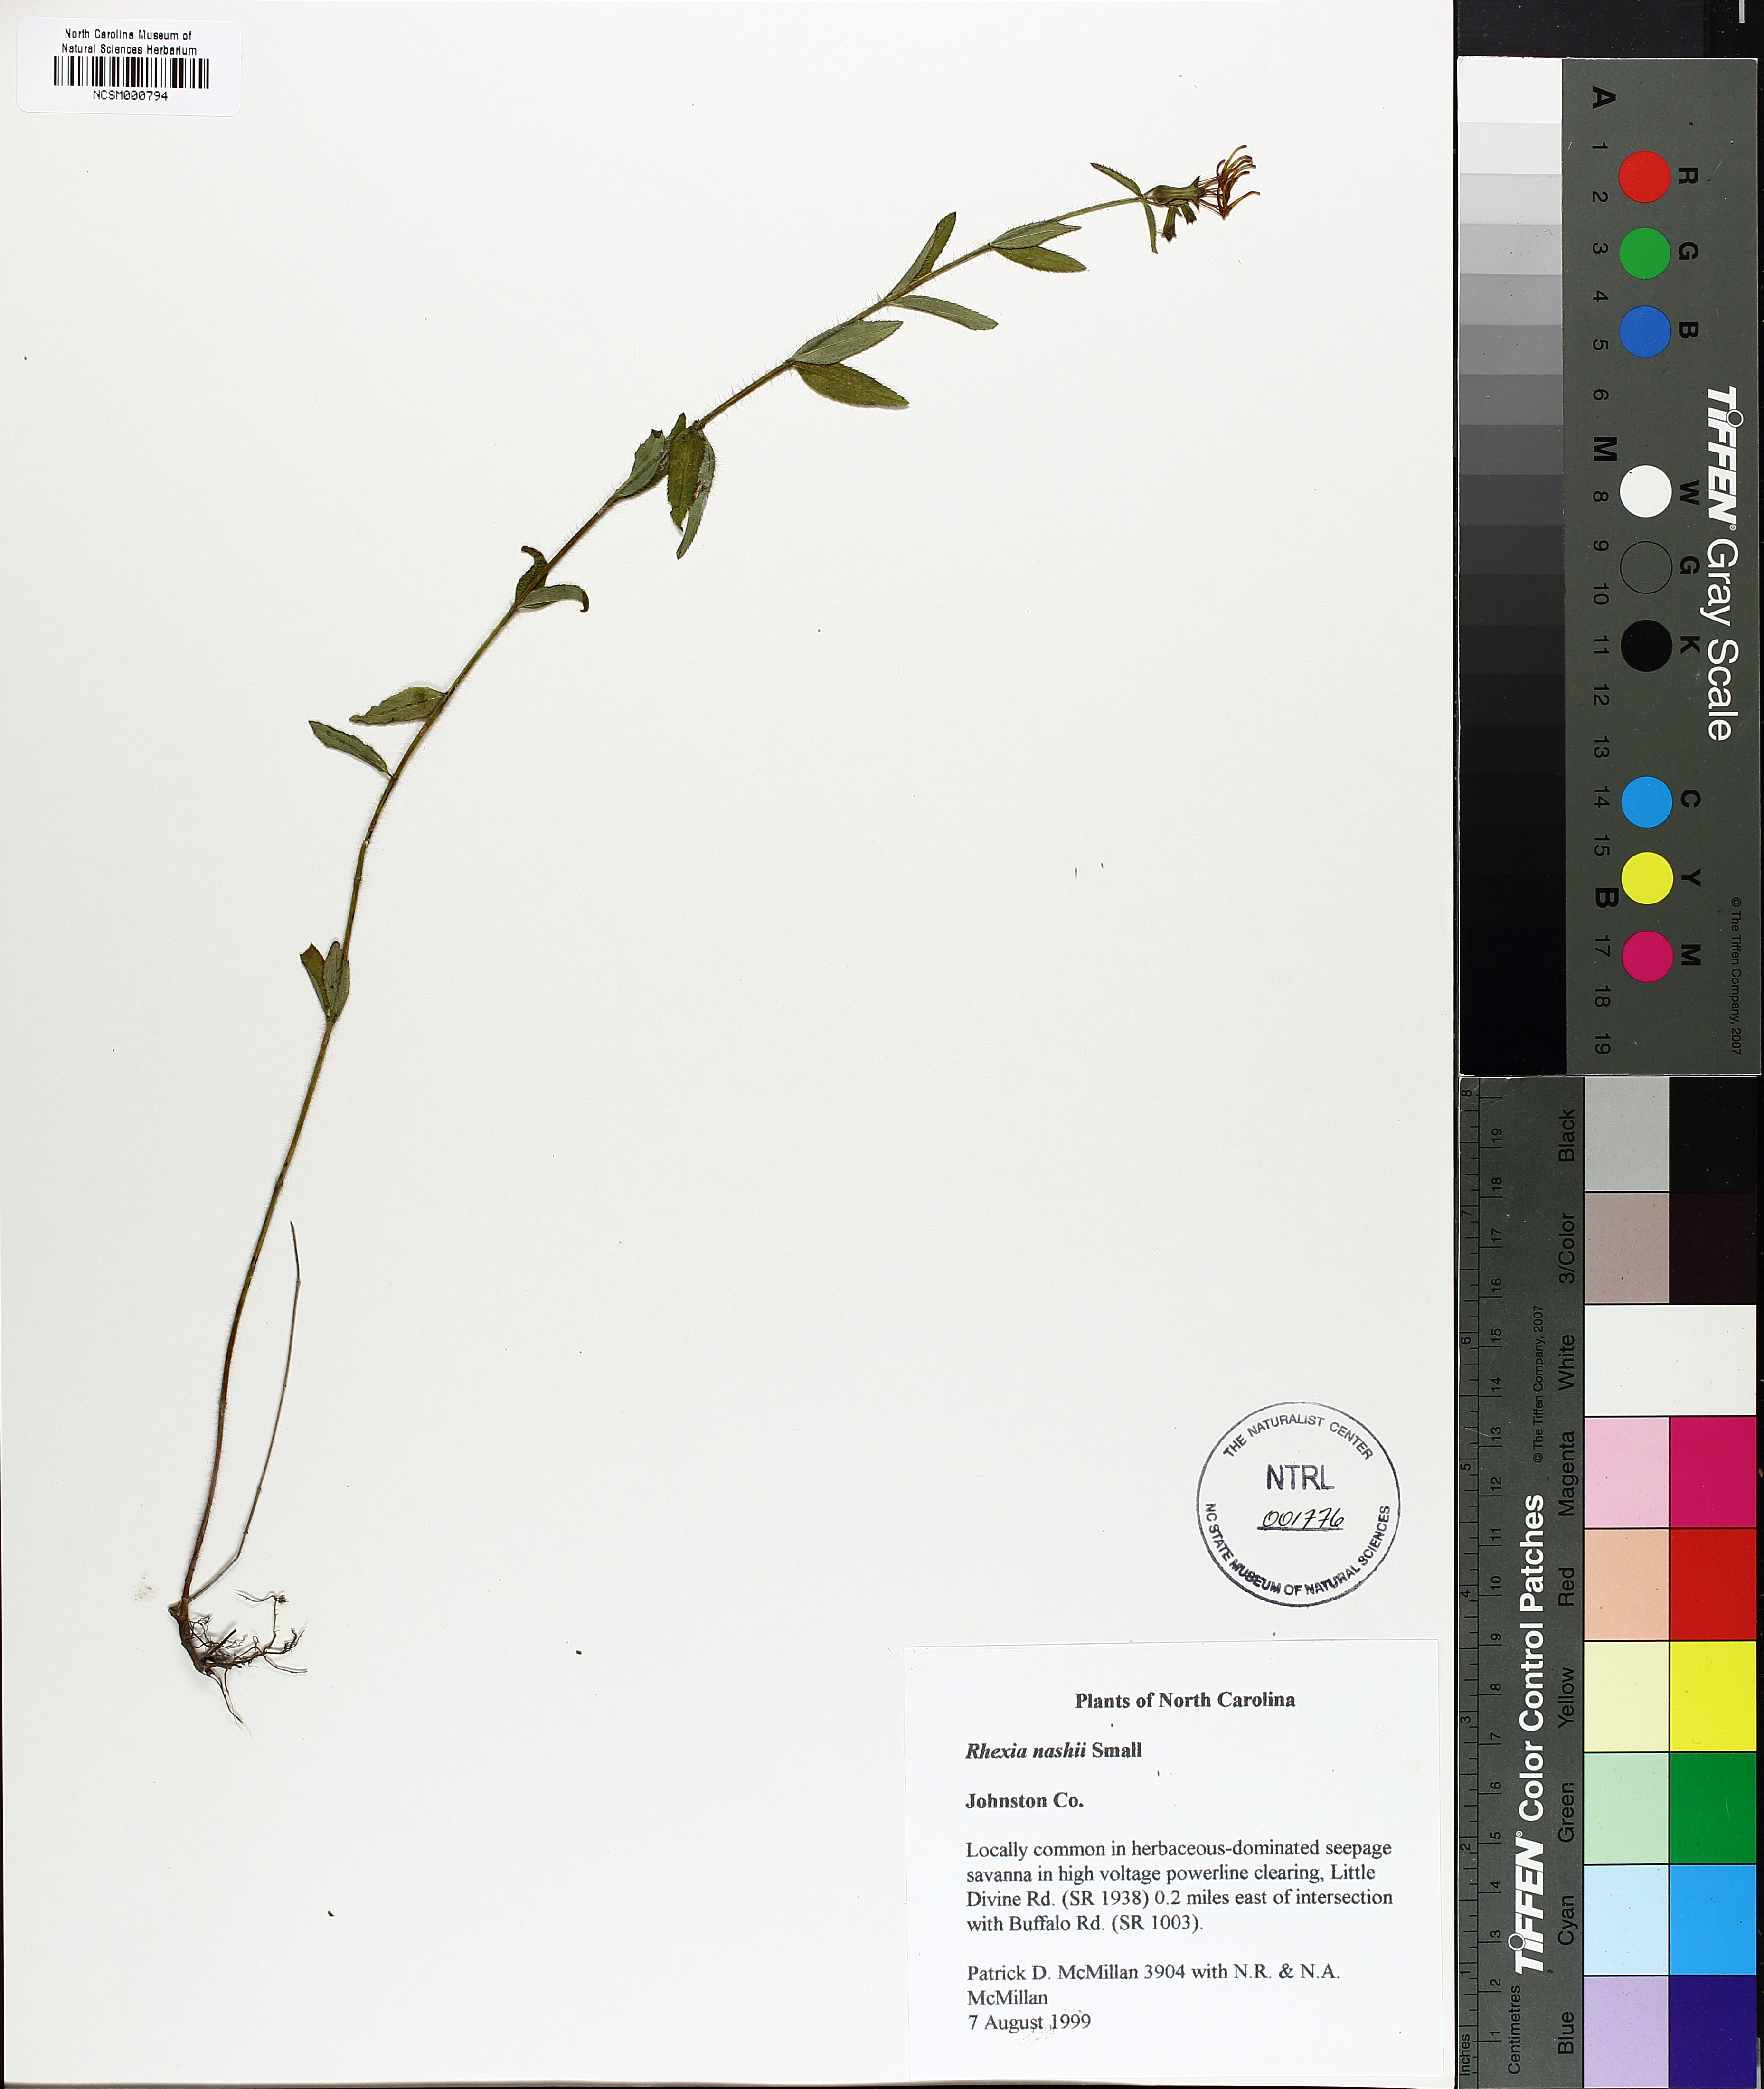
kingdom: Plantae
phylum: Tracheophyta
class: Magnoliopsida
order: Myrtales
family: Melastomataceae
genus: Rhexia
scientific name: Rhexia nashii
